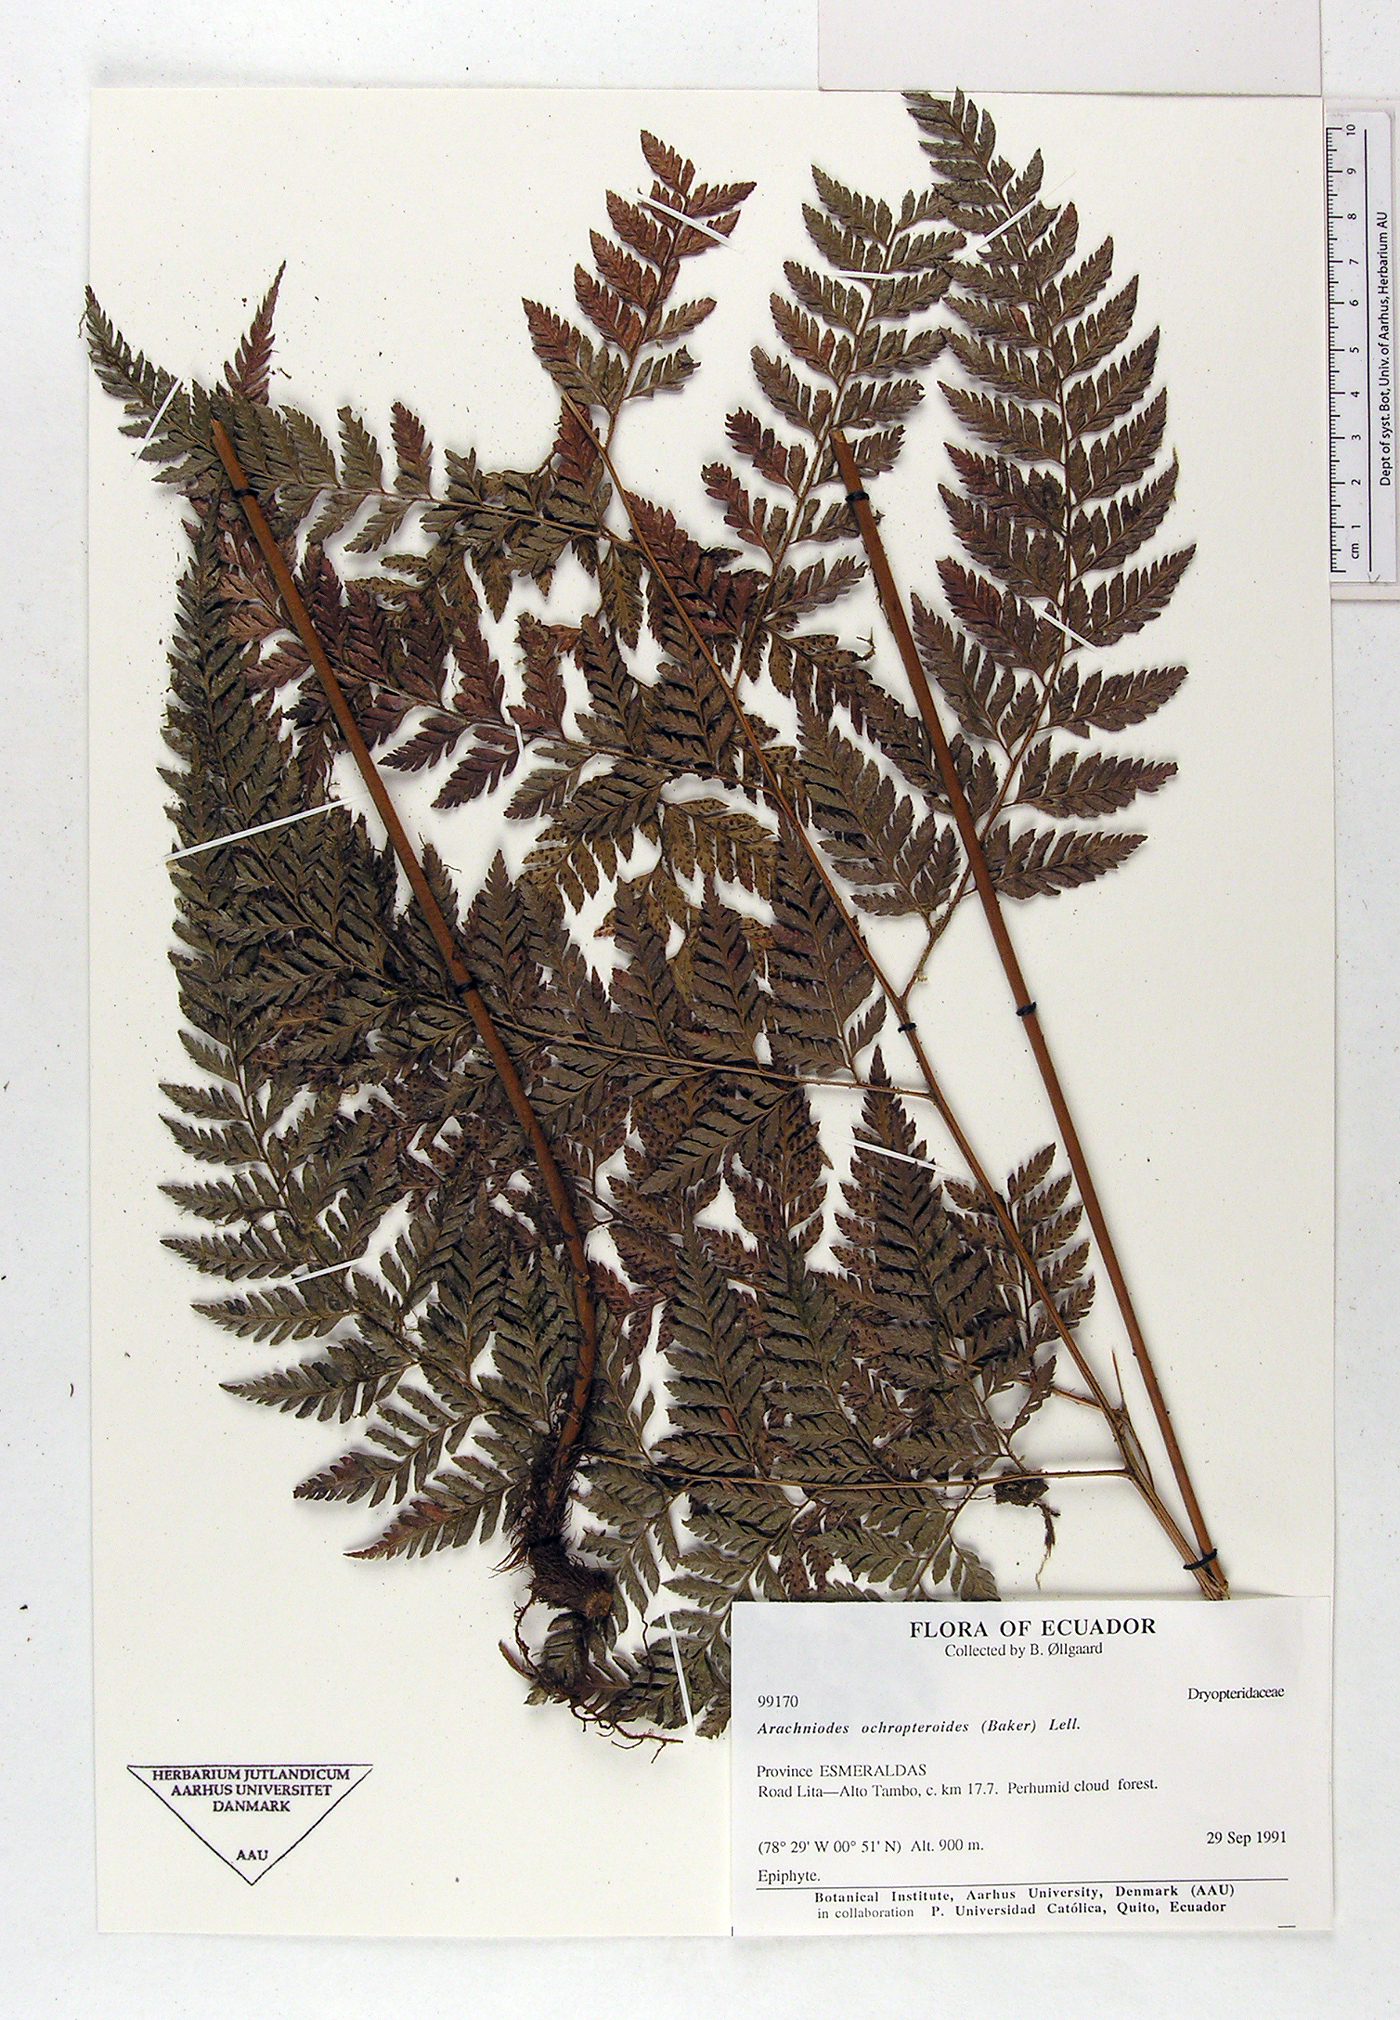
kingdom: Plantae
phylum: Tracheophyta
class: Polypodiopsida
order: Polypodiales
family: Dryopteridaceae
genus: Olfersia
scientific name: Olfersia ochropteroides
